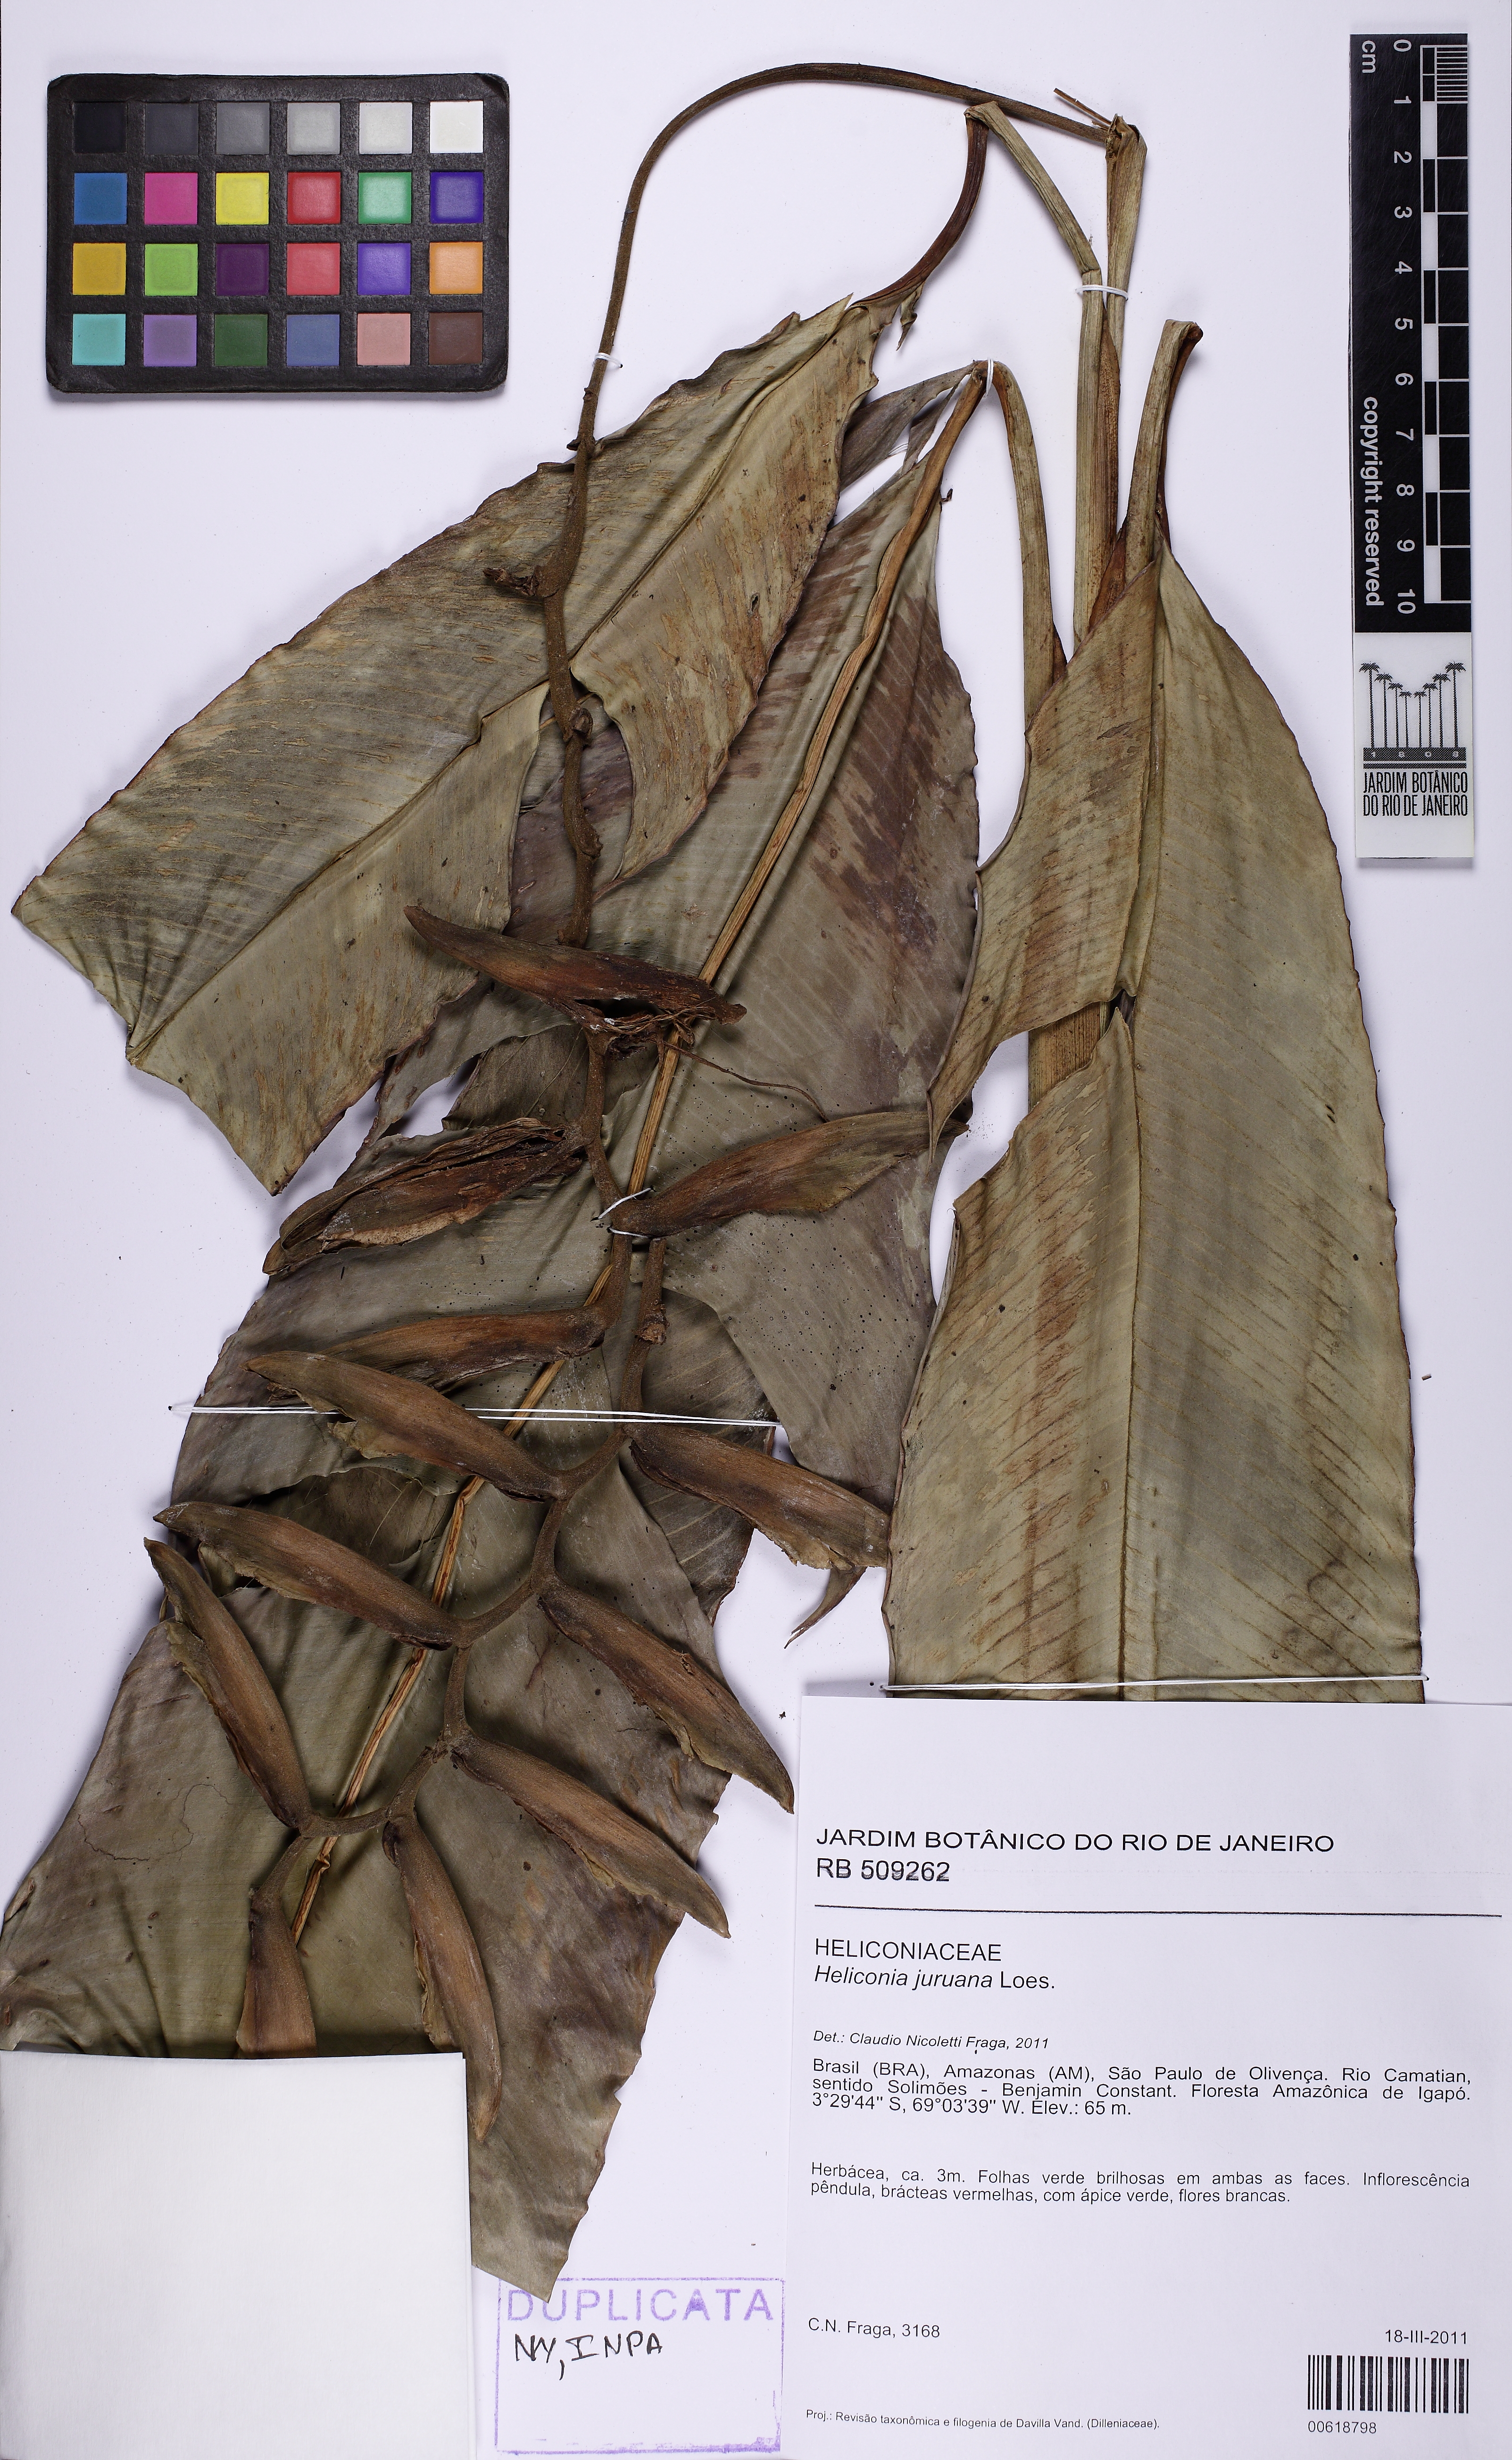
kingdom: Plantae
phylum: Tracheophyta
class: Liliopsida
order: Zingiberales
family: Heliconiaceae
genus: Heliconia
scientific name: Heliconia juruana
